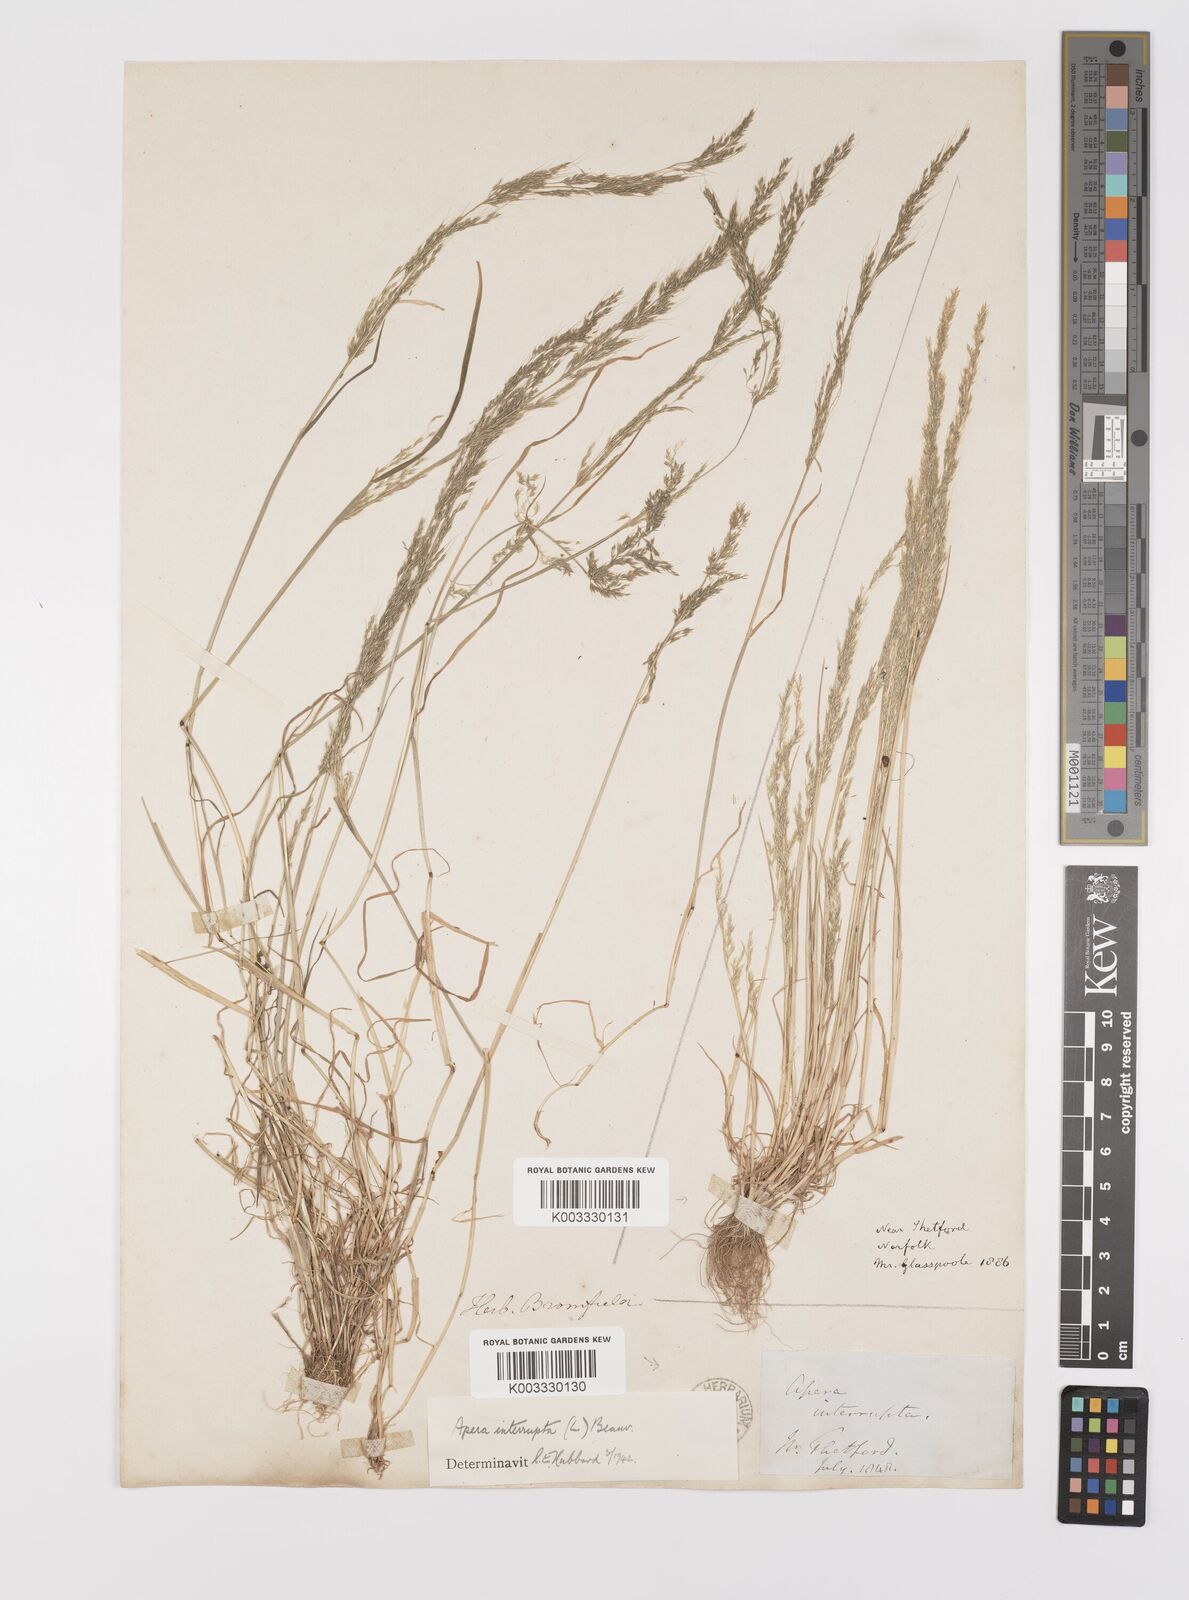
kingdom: Plantae
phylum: Tracheophyta
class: Liliopsida
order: Poales
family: Poaceae
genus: Apera
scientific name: Apera interrupta
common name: Dense silky-bent
